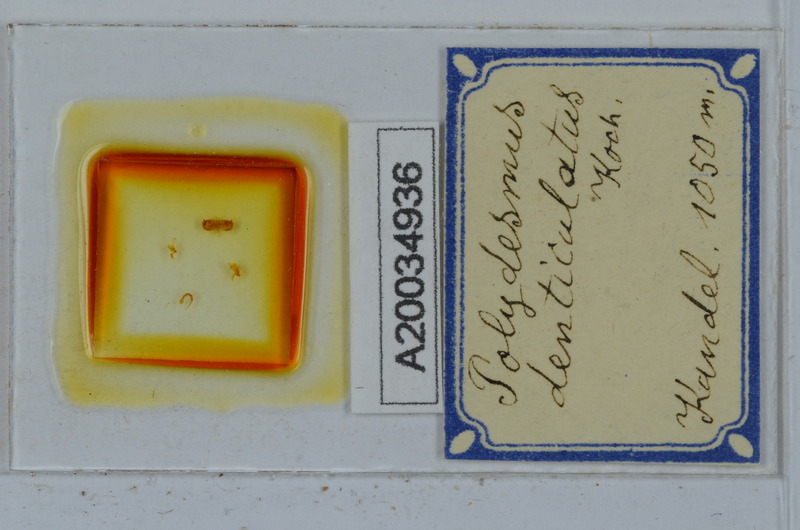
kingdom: Animalia
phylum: Arthropoda
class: Diplopoda
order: Polydesmida
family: Polydesmidae
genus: Polydesmus
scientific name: Polydesmus denticulatus
